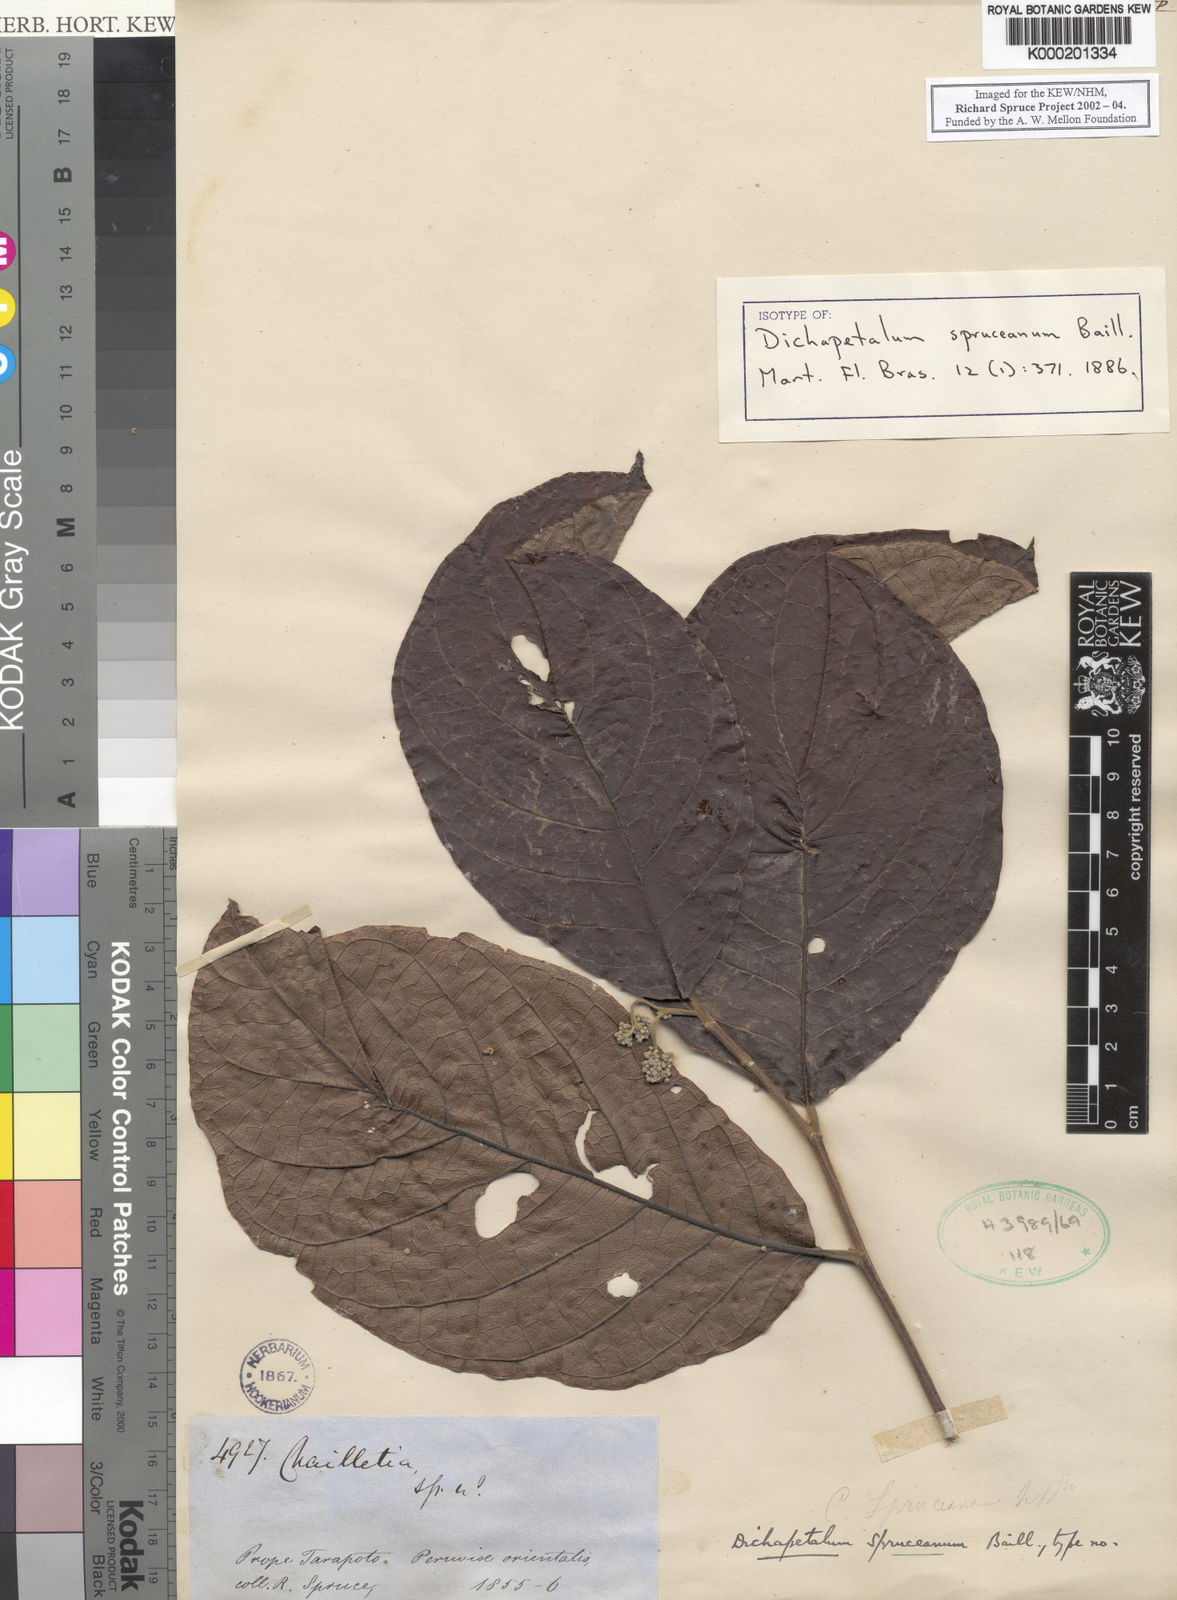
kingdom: Plantae
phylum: Tracheophyta
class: Magnoliopsida
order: Malpighiales
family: Dichapetalaceae
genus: Dichapetalum
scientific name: Dichapetalum spruceanum
